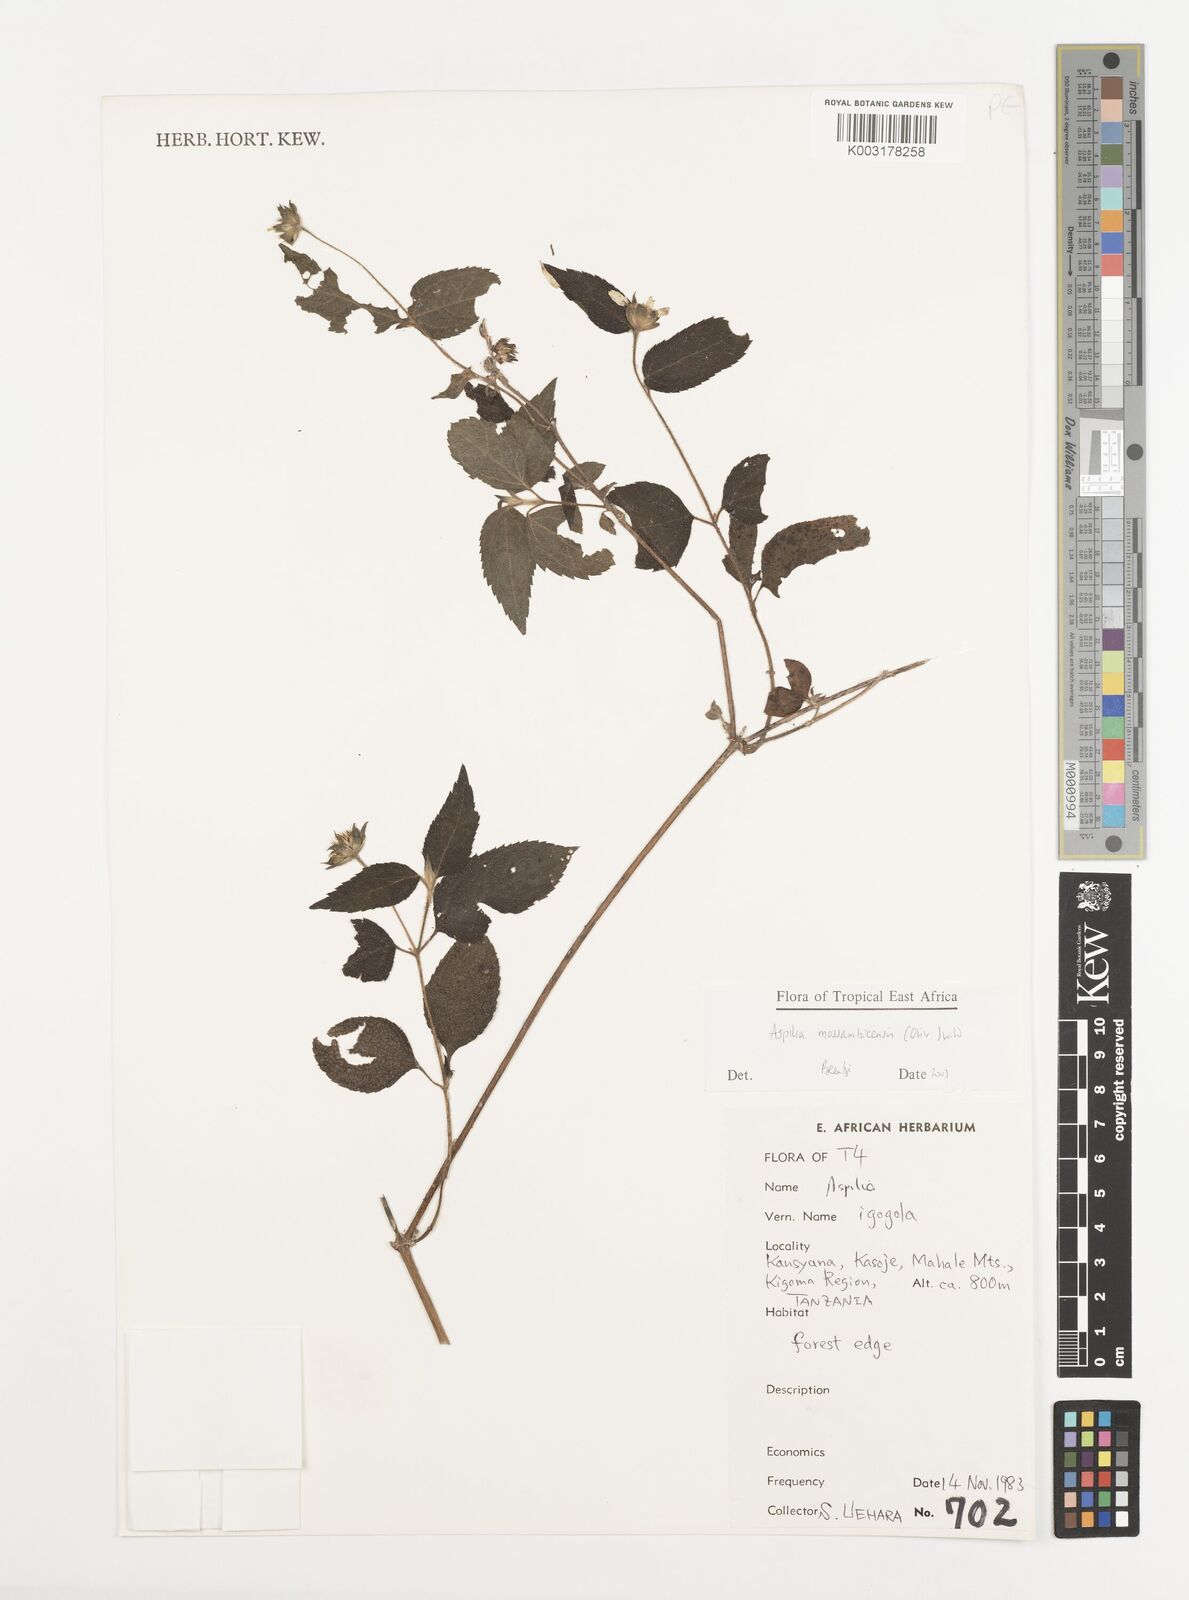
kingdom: Plantae
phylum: Tracheophyta
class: Magnoliopsida
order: Asterales
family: Asteraceae
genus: Aspilia
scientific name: Aspilia mossambicensis
